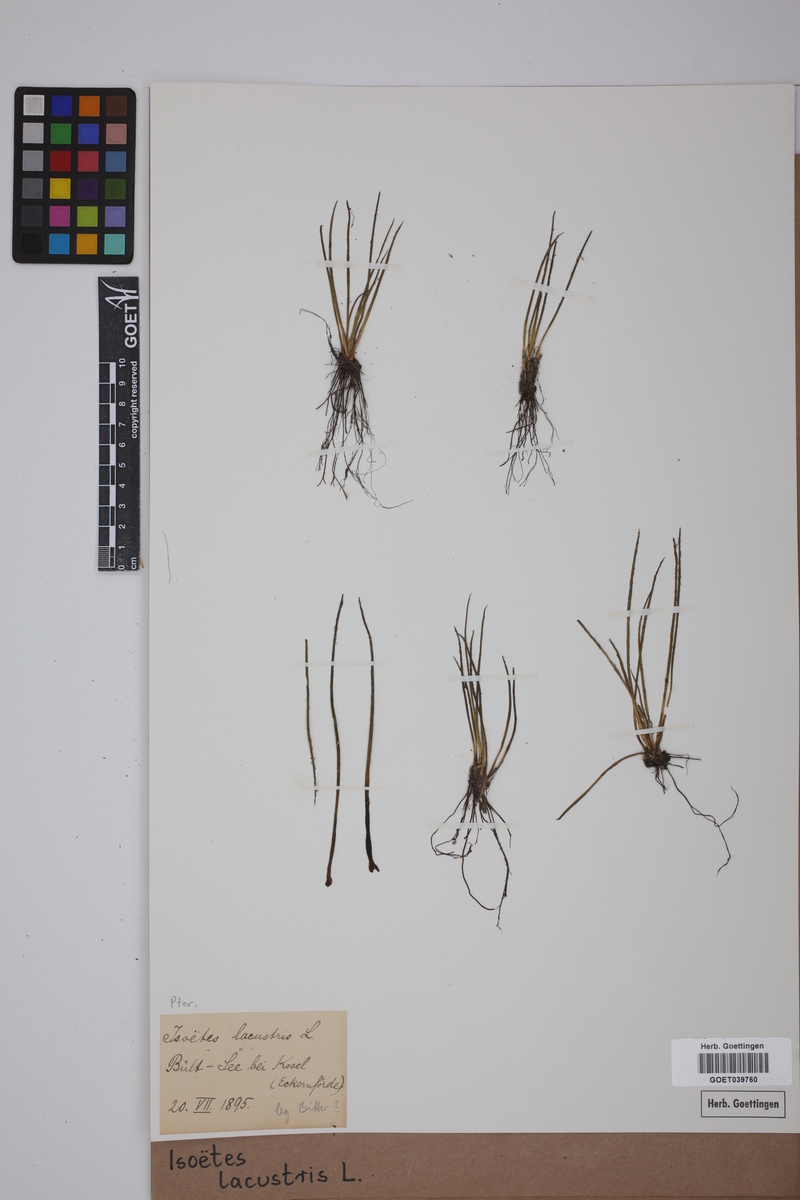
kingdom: Plantae
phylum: Tracheophyta
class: Lycopodiopsida
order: Isoetales
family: Isoetaceae
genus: Isoetes
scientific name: Isoetes lacustris
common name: Common quillwort
